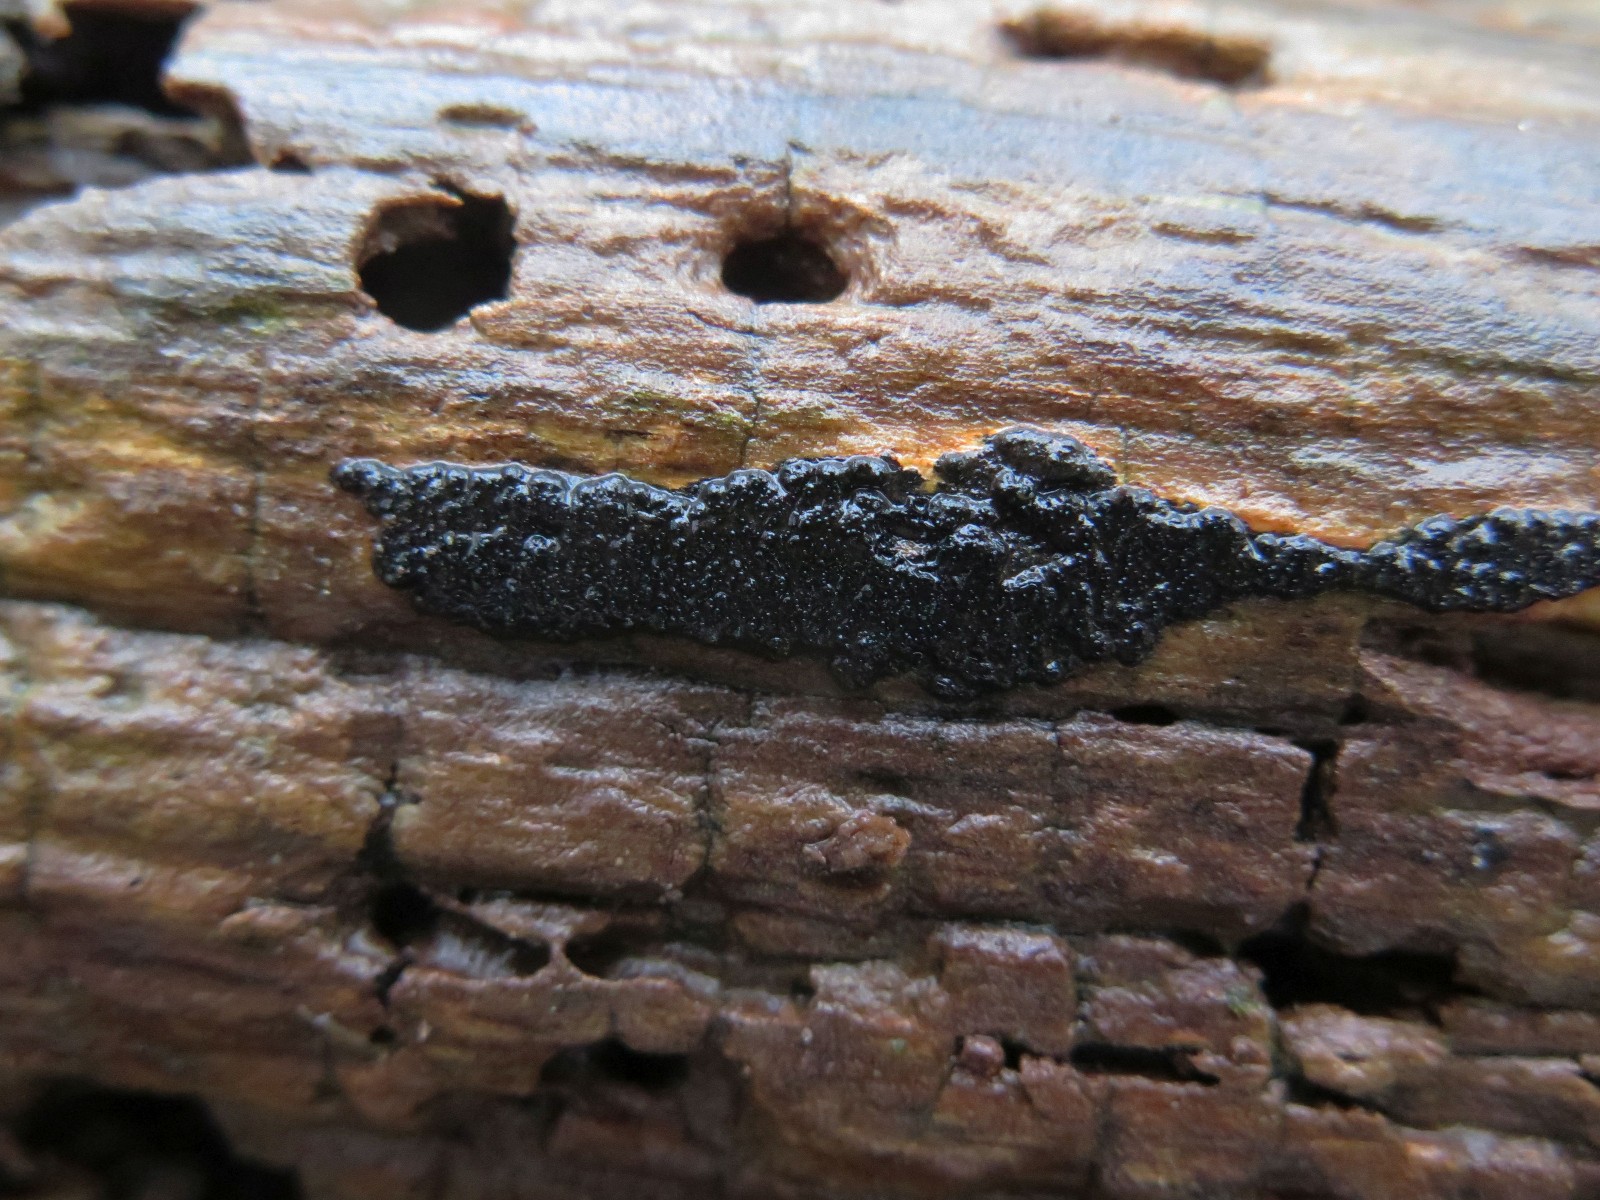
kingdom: Fungi
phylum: Ascomycota
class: Sordariomycetes
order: Xylariales
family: Xylariaceae
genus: Nemania
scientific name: Nemania serpens
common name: almindelig kuldyne
